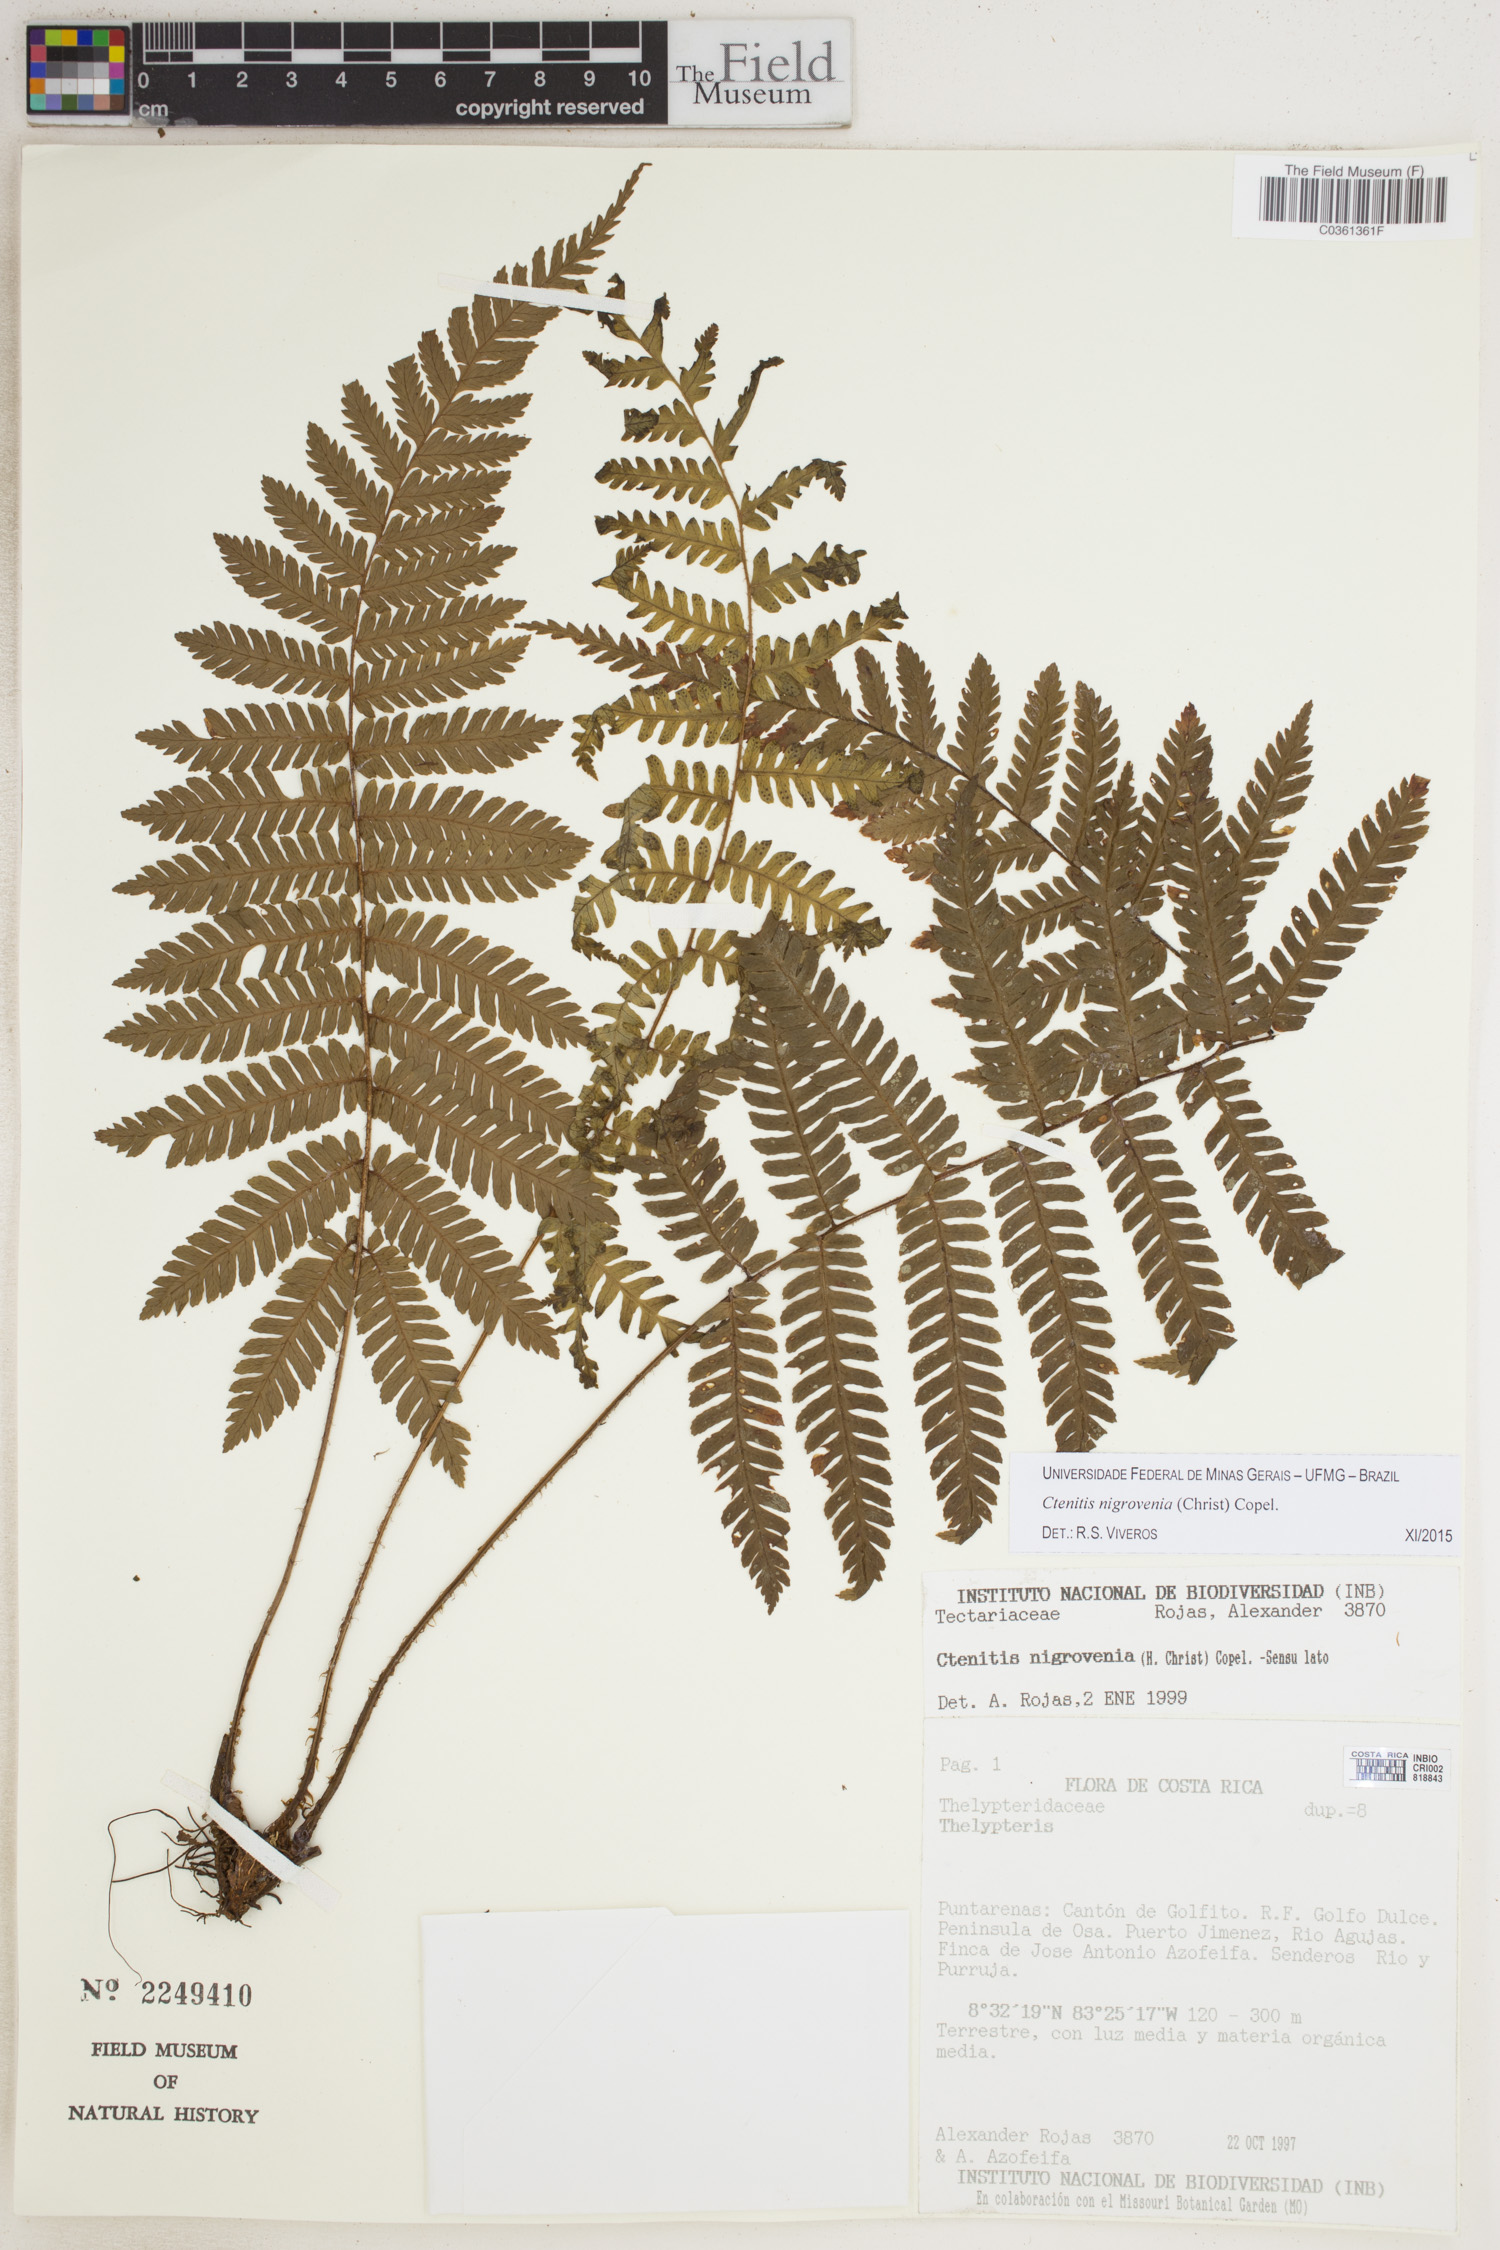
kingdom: Plantae
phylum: Tracheophyta
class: Polypodiopsida
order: Polypodiales
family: Dryopteridaceae
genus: Ctenitis
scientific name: Ctenitis nigrovenia
